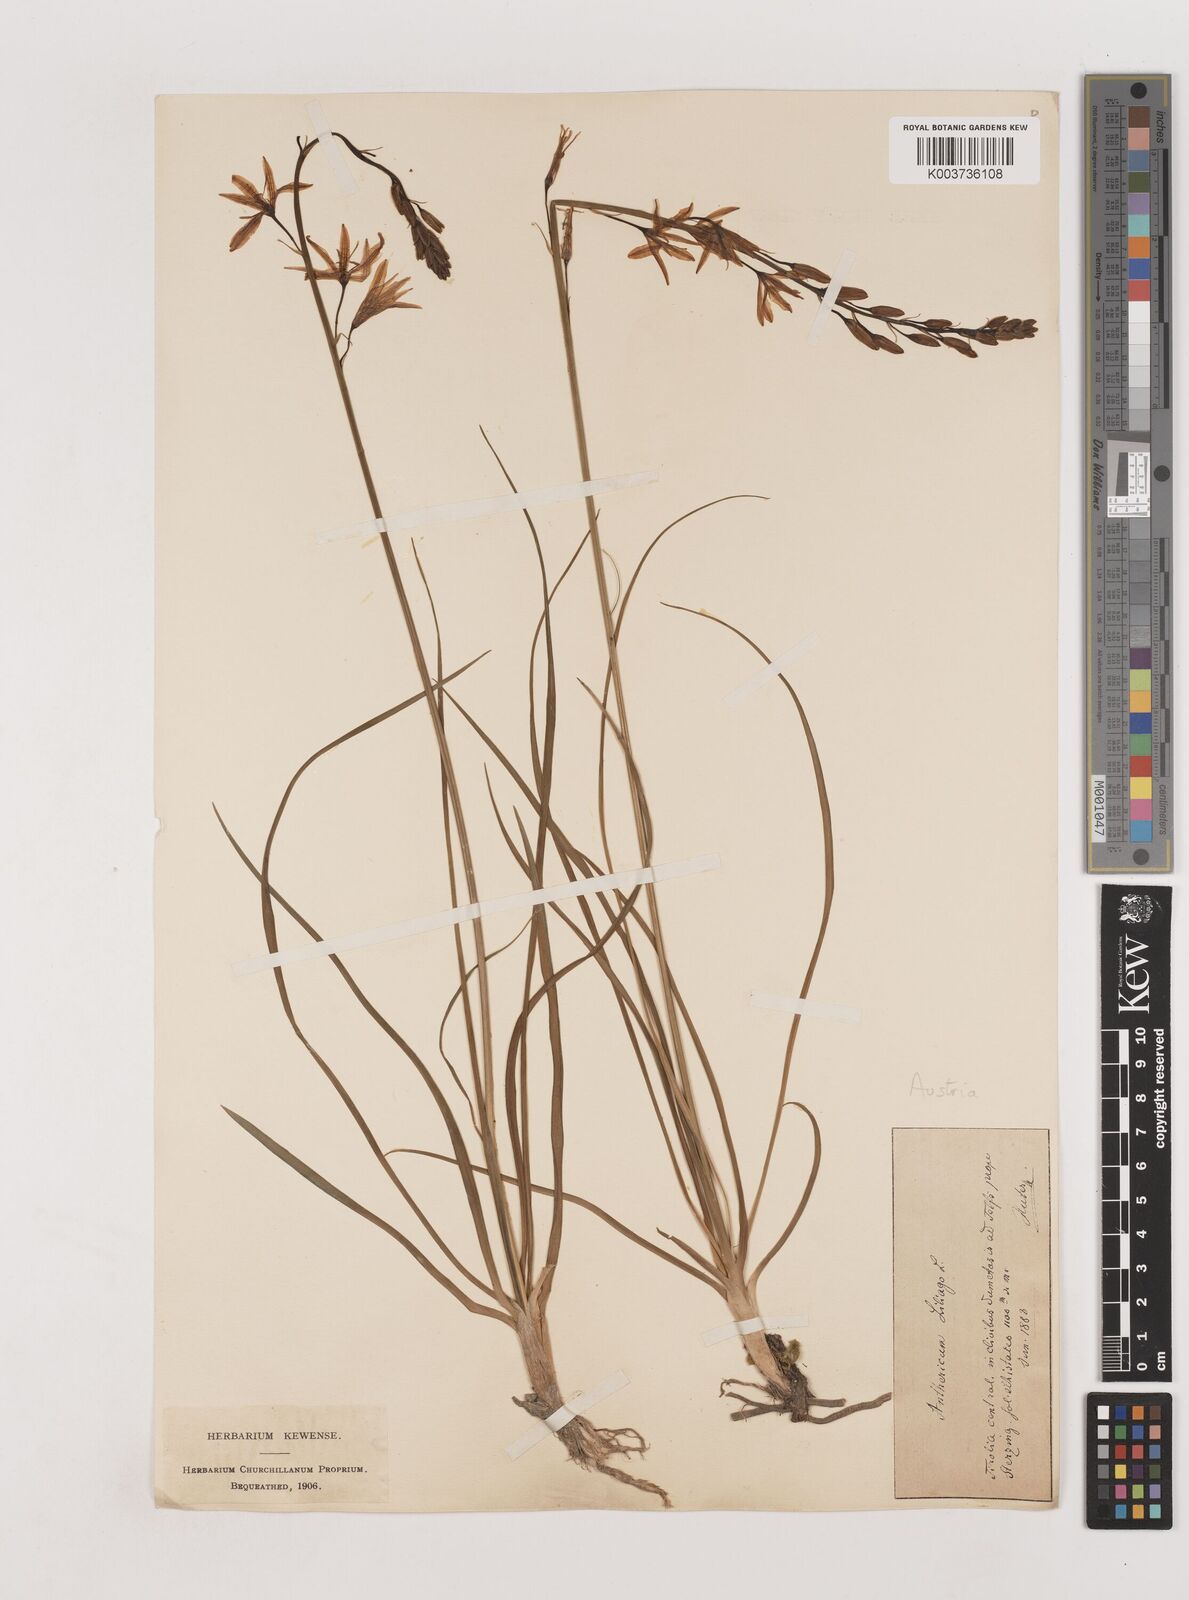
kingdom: Plantae
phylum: Tracheophyta
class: Liliopsida
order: Asparagales
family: Asparagaceae
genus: Anthericum
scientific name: Anthericum liliago
